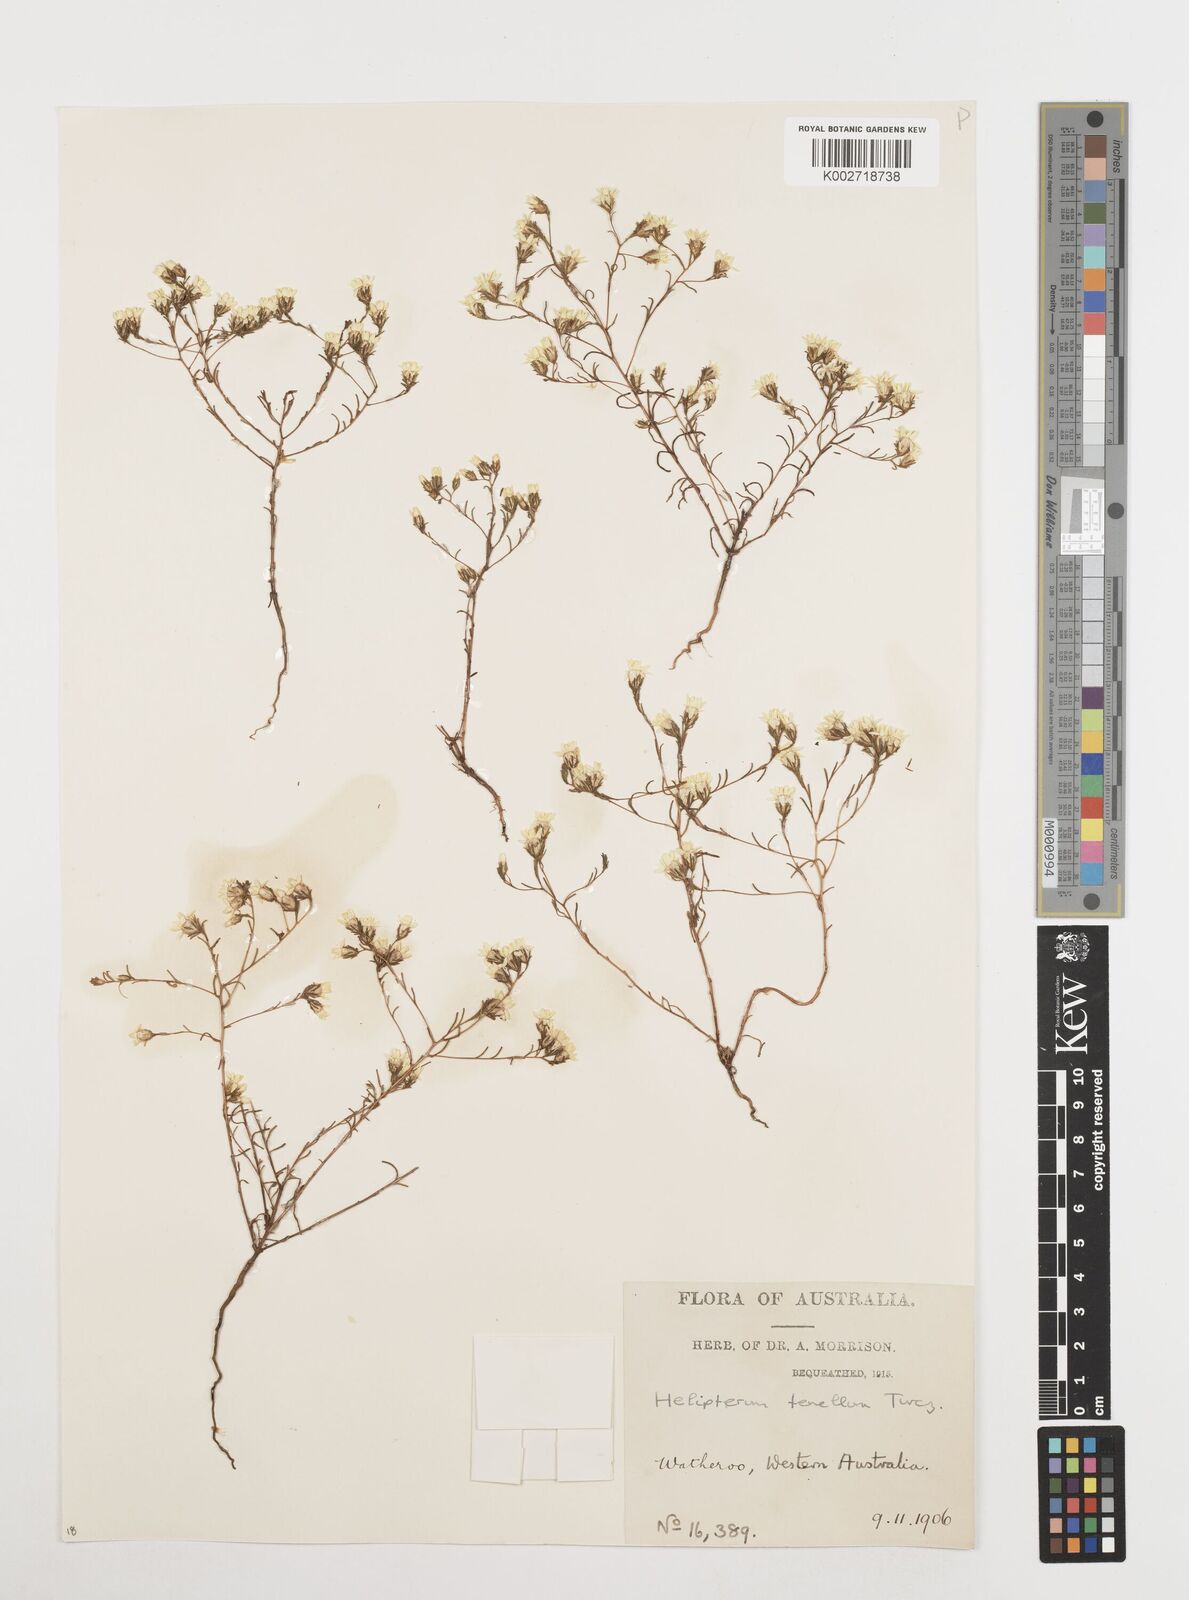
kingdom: Plantae
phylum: Tracheophyta
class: Magnoliopsida
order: Asterales
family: Asteraceae
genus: Erymophyllum
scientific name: Erymophyllum tenellum
